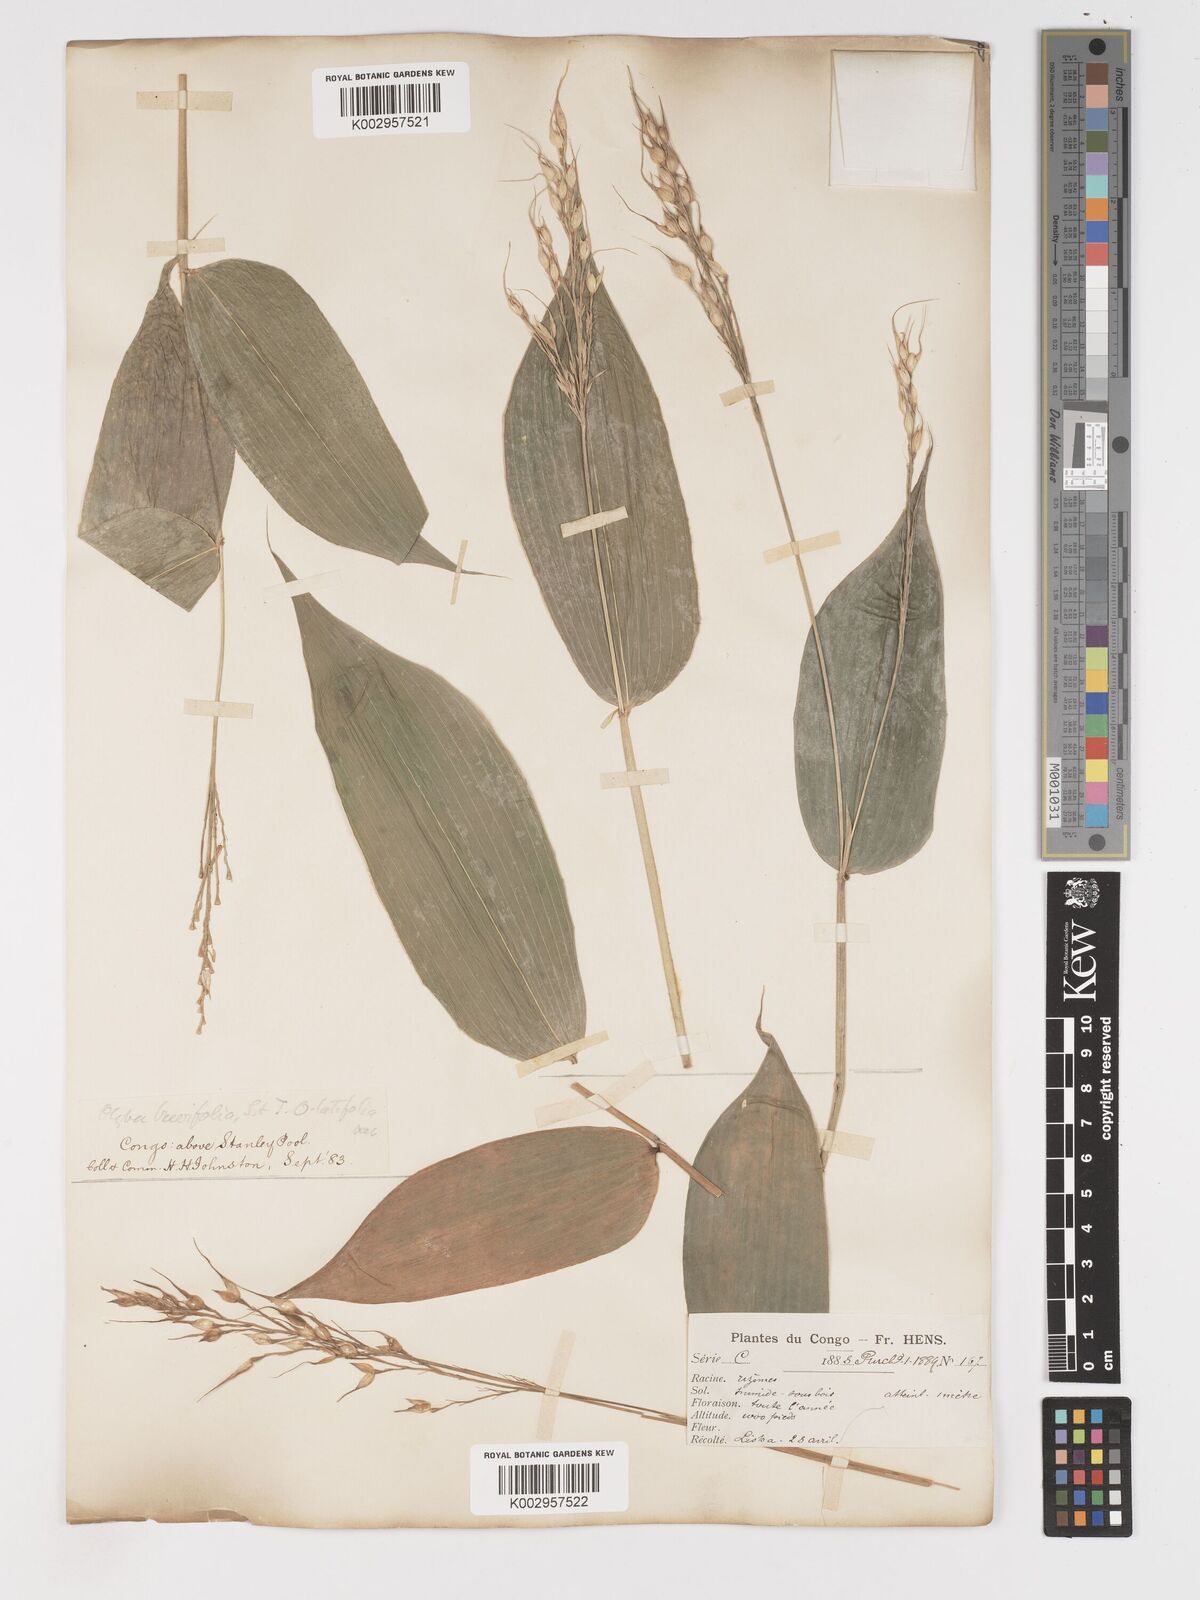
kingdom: Plantae
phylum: Tracheophyta
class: Liliopsida
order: Poales
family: Poaceae
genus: Olyra
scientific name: Olyra latifolia
